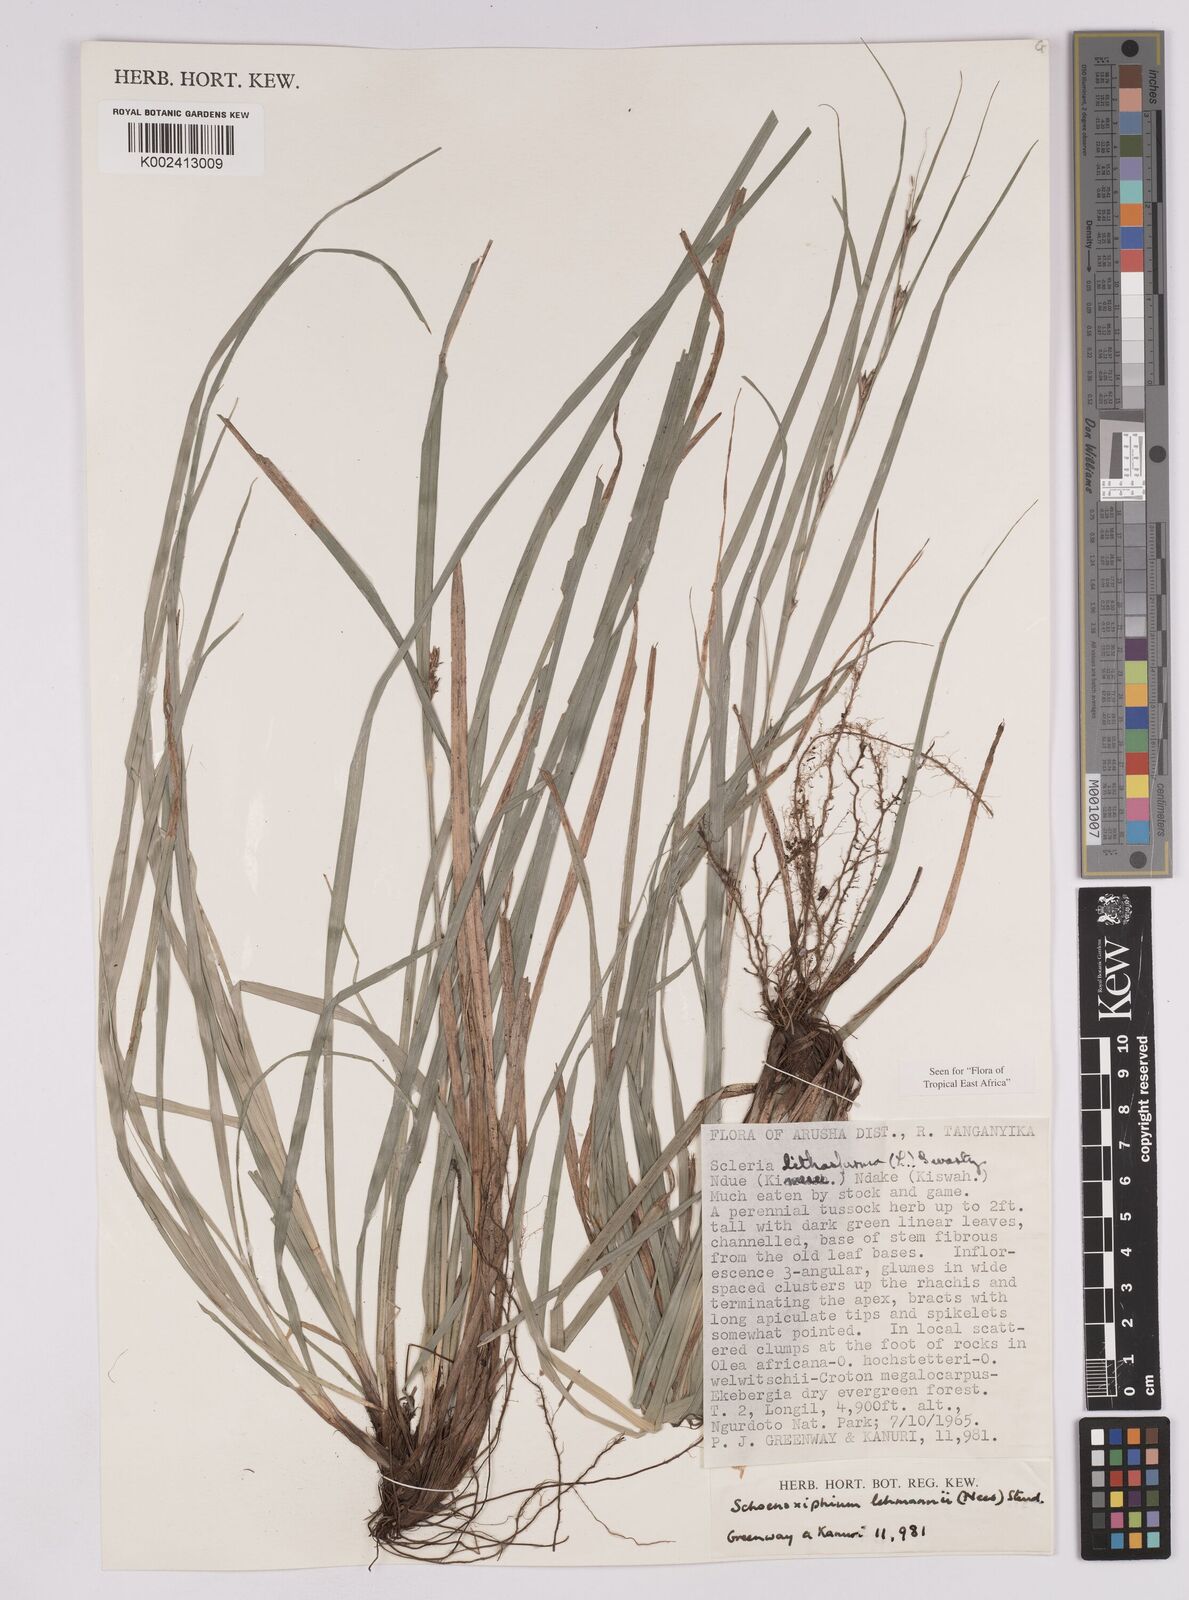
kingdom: Plantae
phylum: Tracheophyta
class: Liliopsida
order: Poales
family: Cyperaceae
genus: Carex
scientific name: Carex uhligii
